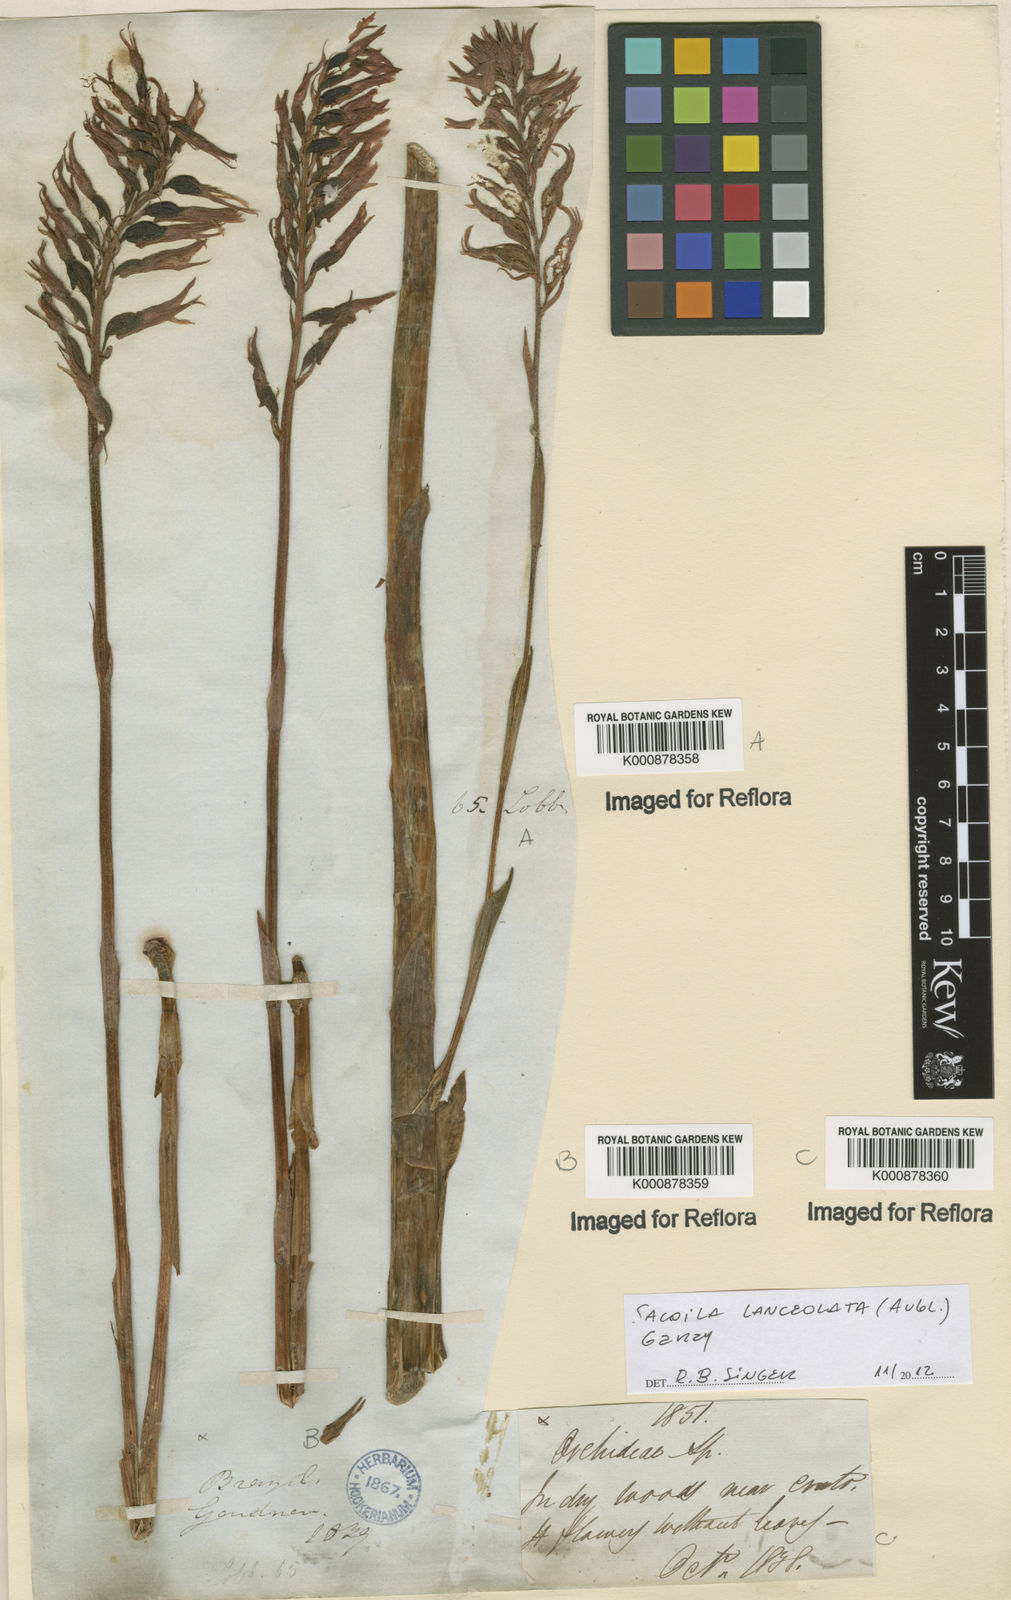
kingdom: Plantae
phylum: Tracheophyta
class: Liliopsida
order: Asparagales
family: Orchidaceae
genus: Sacoila
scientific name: Sacoila lanceolata
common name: Leafless beaked ladiestresses
